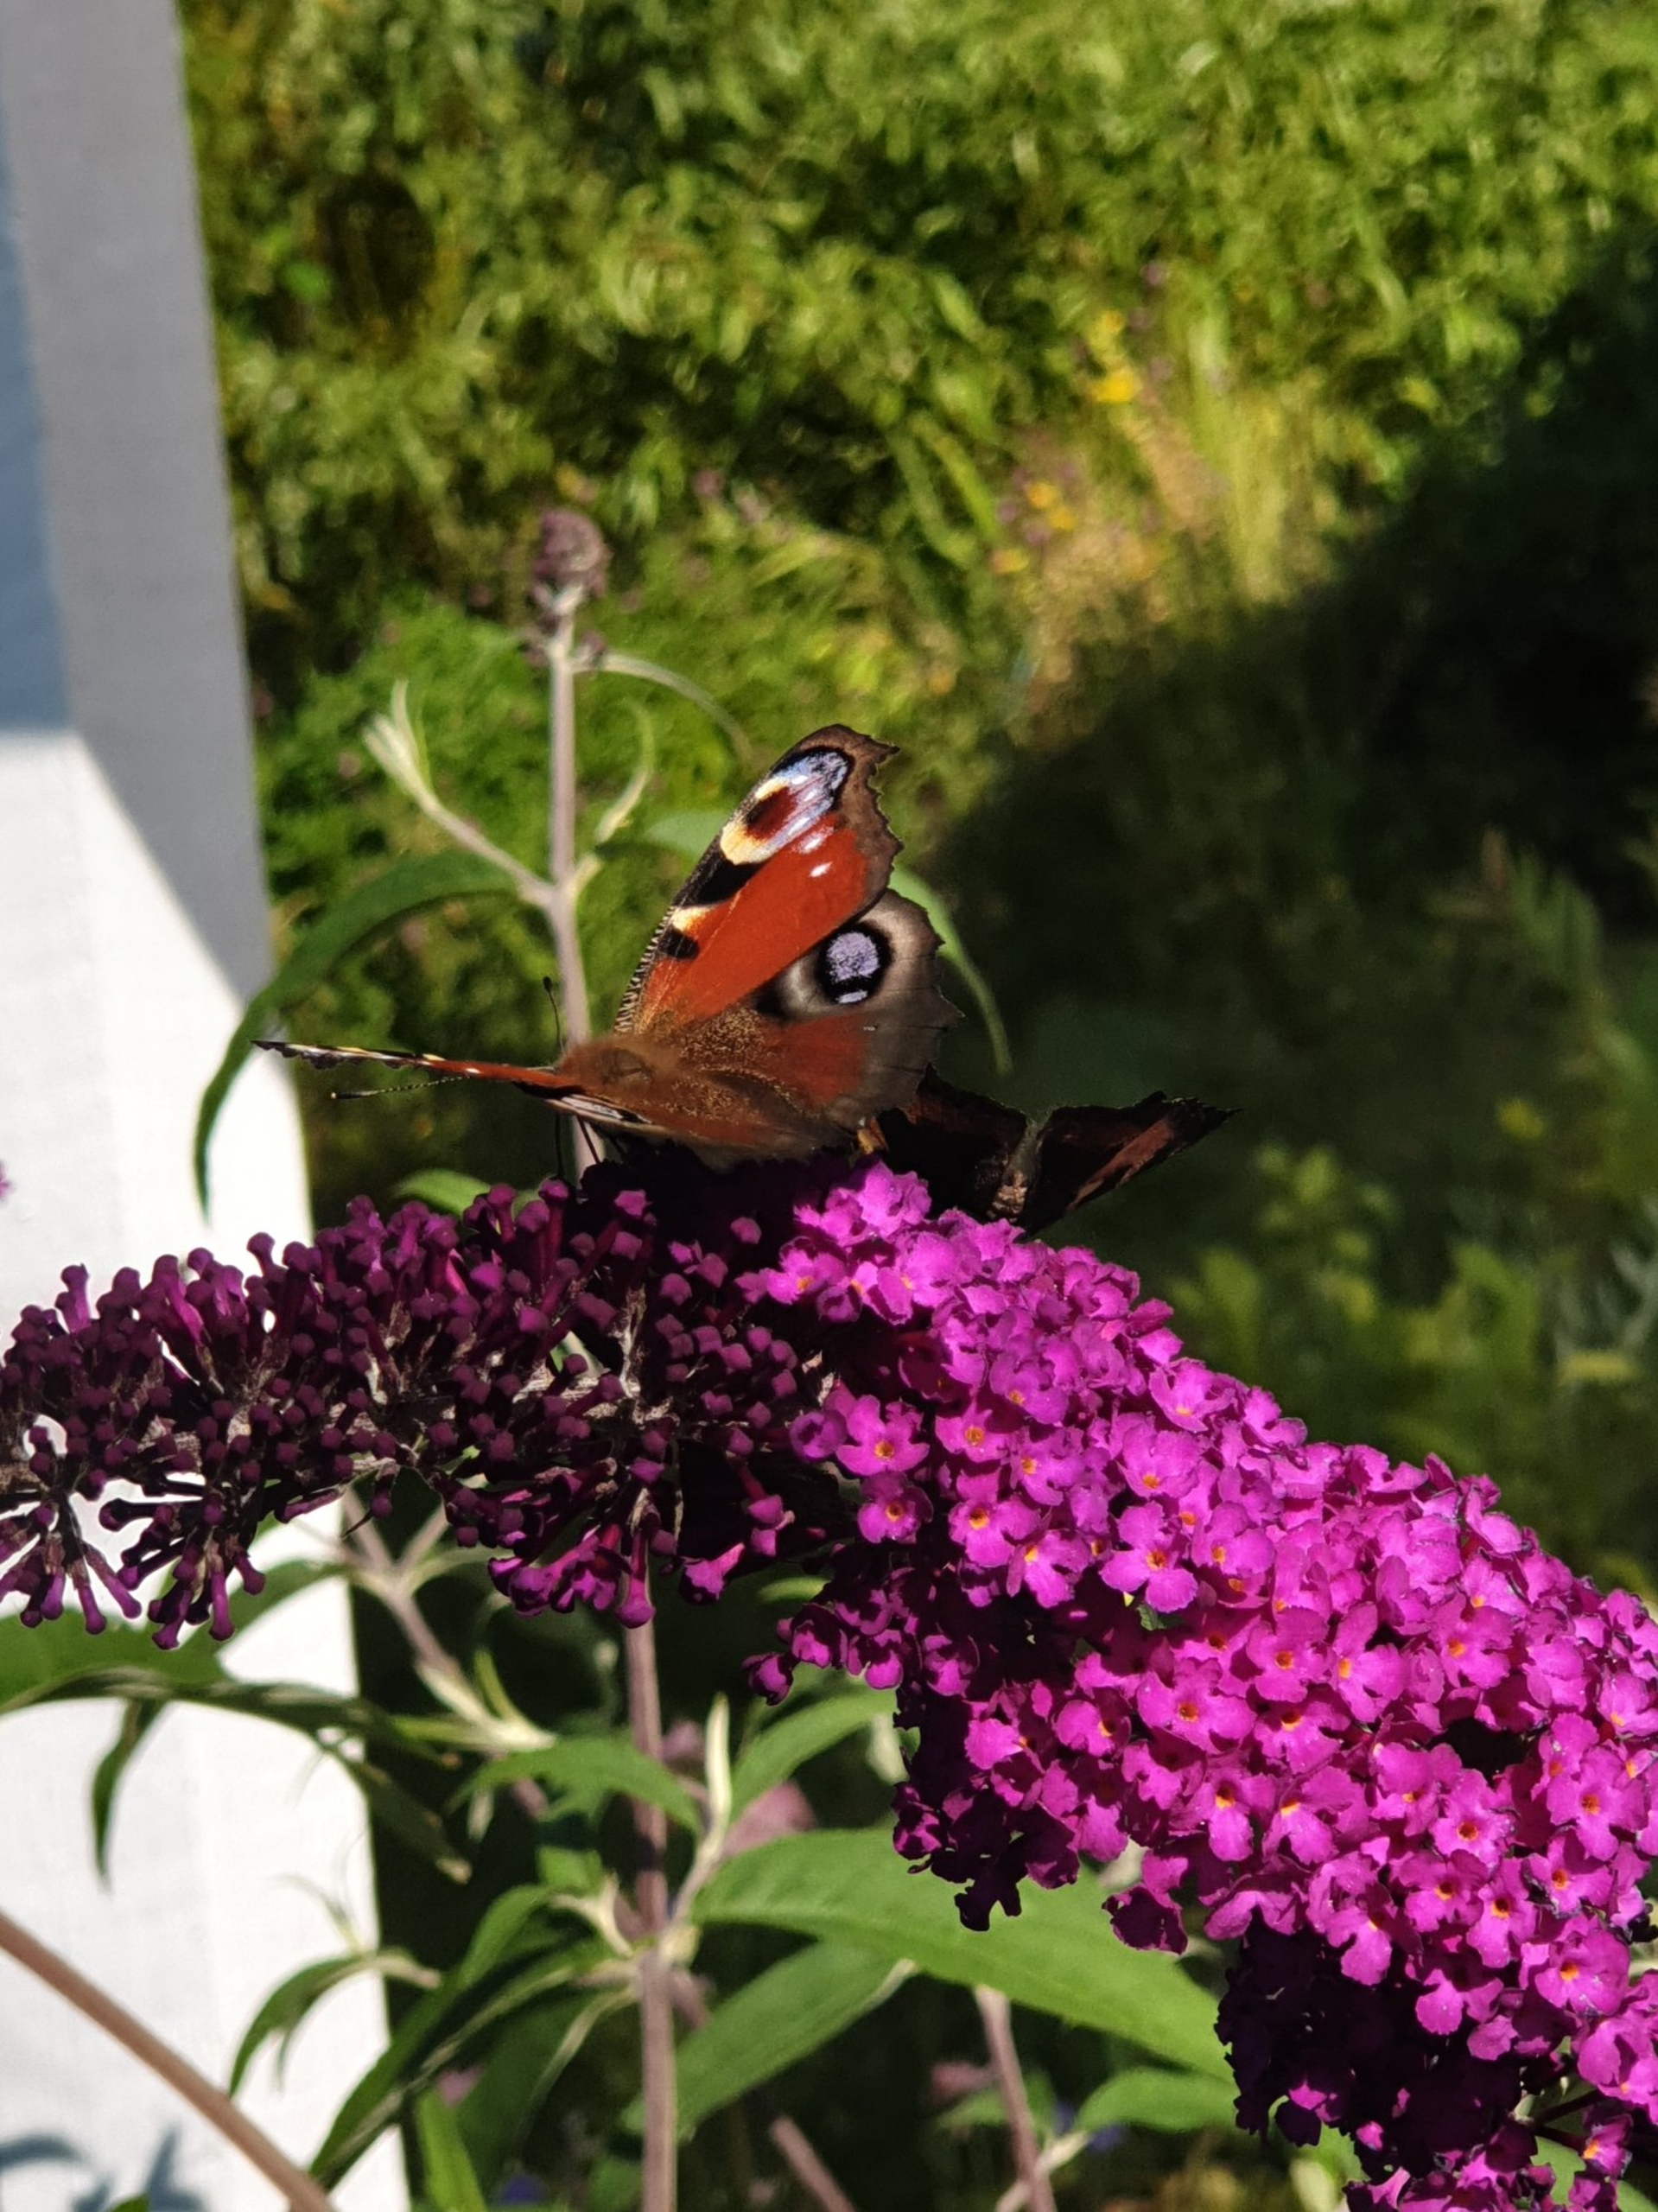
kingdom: Animalia
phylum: Arthropoda
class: Insecta
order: Lepidoptera
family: Nymphalidae
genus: Aglais
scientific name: Aglais io
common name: Dagpåfugleøje
